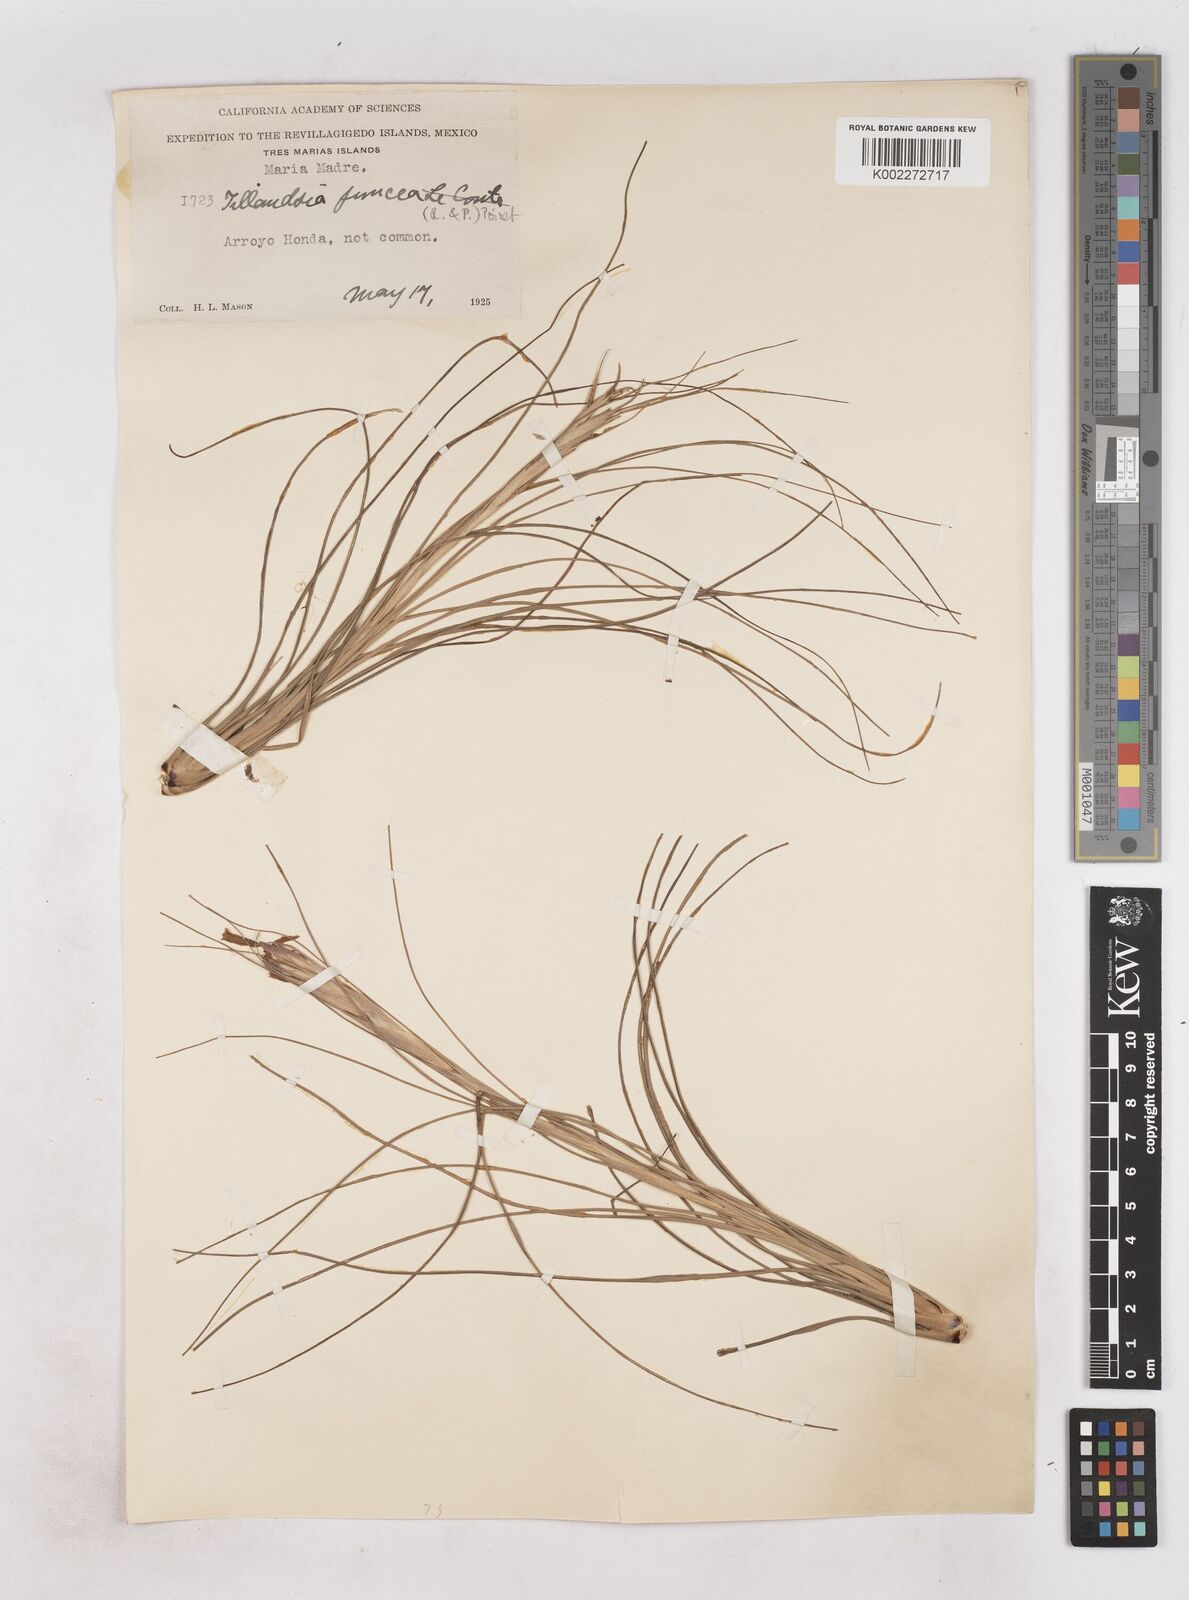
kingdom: Plantae
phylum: Tracheophyta
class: Liliopsida
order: Poales
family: Bromeliaceae
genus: Tillandsia
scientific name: Tillandsia juncea
